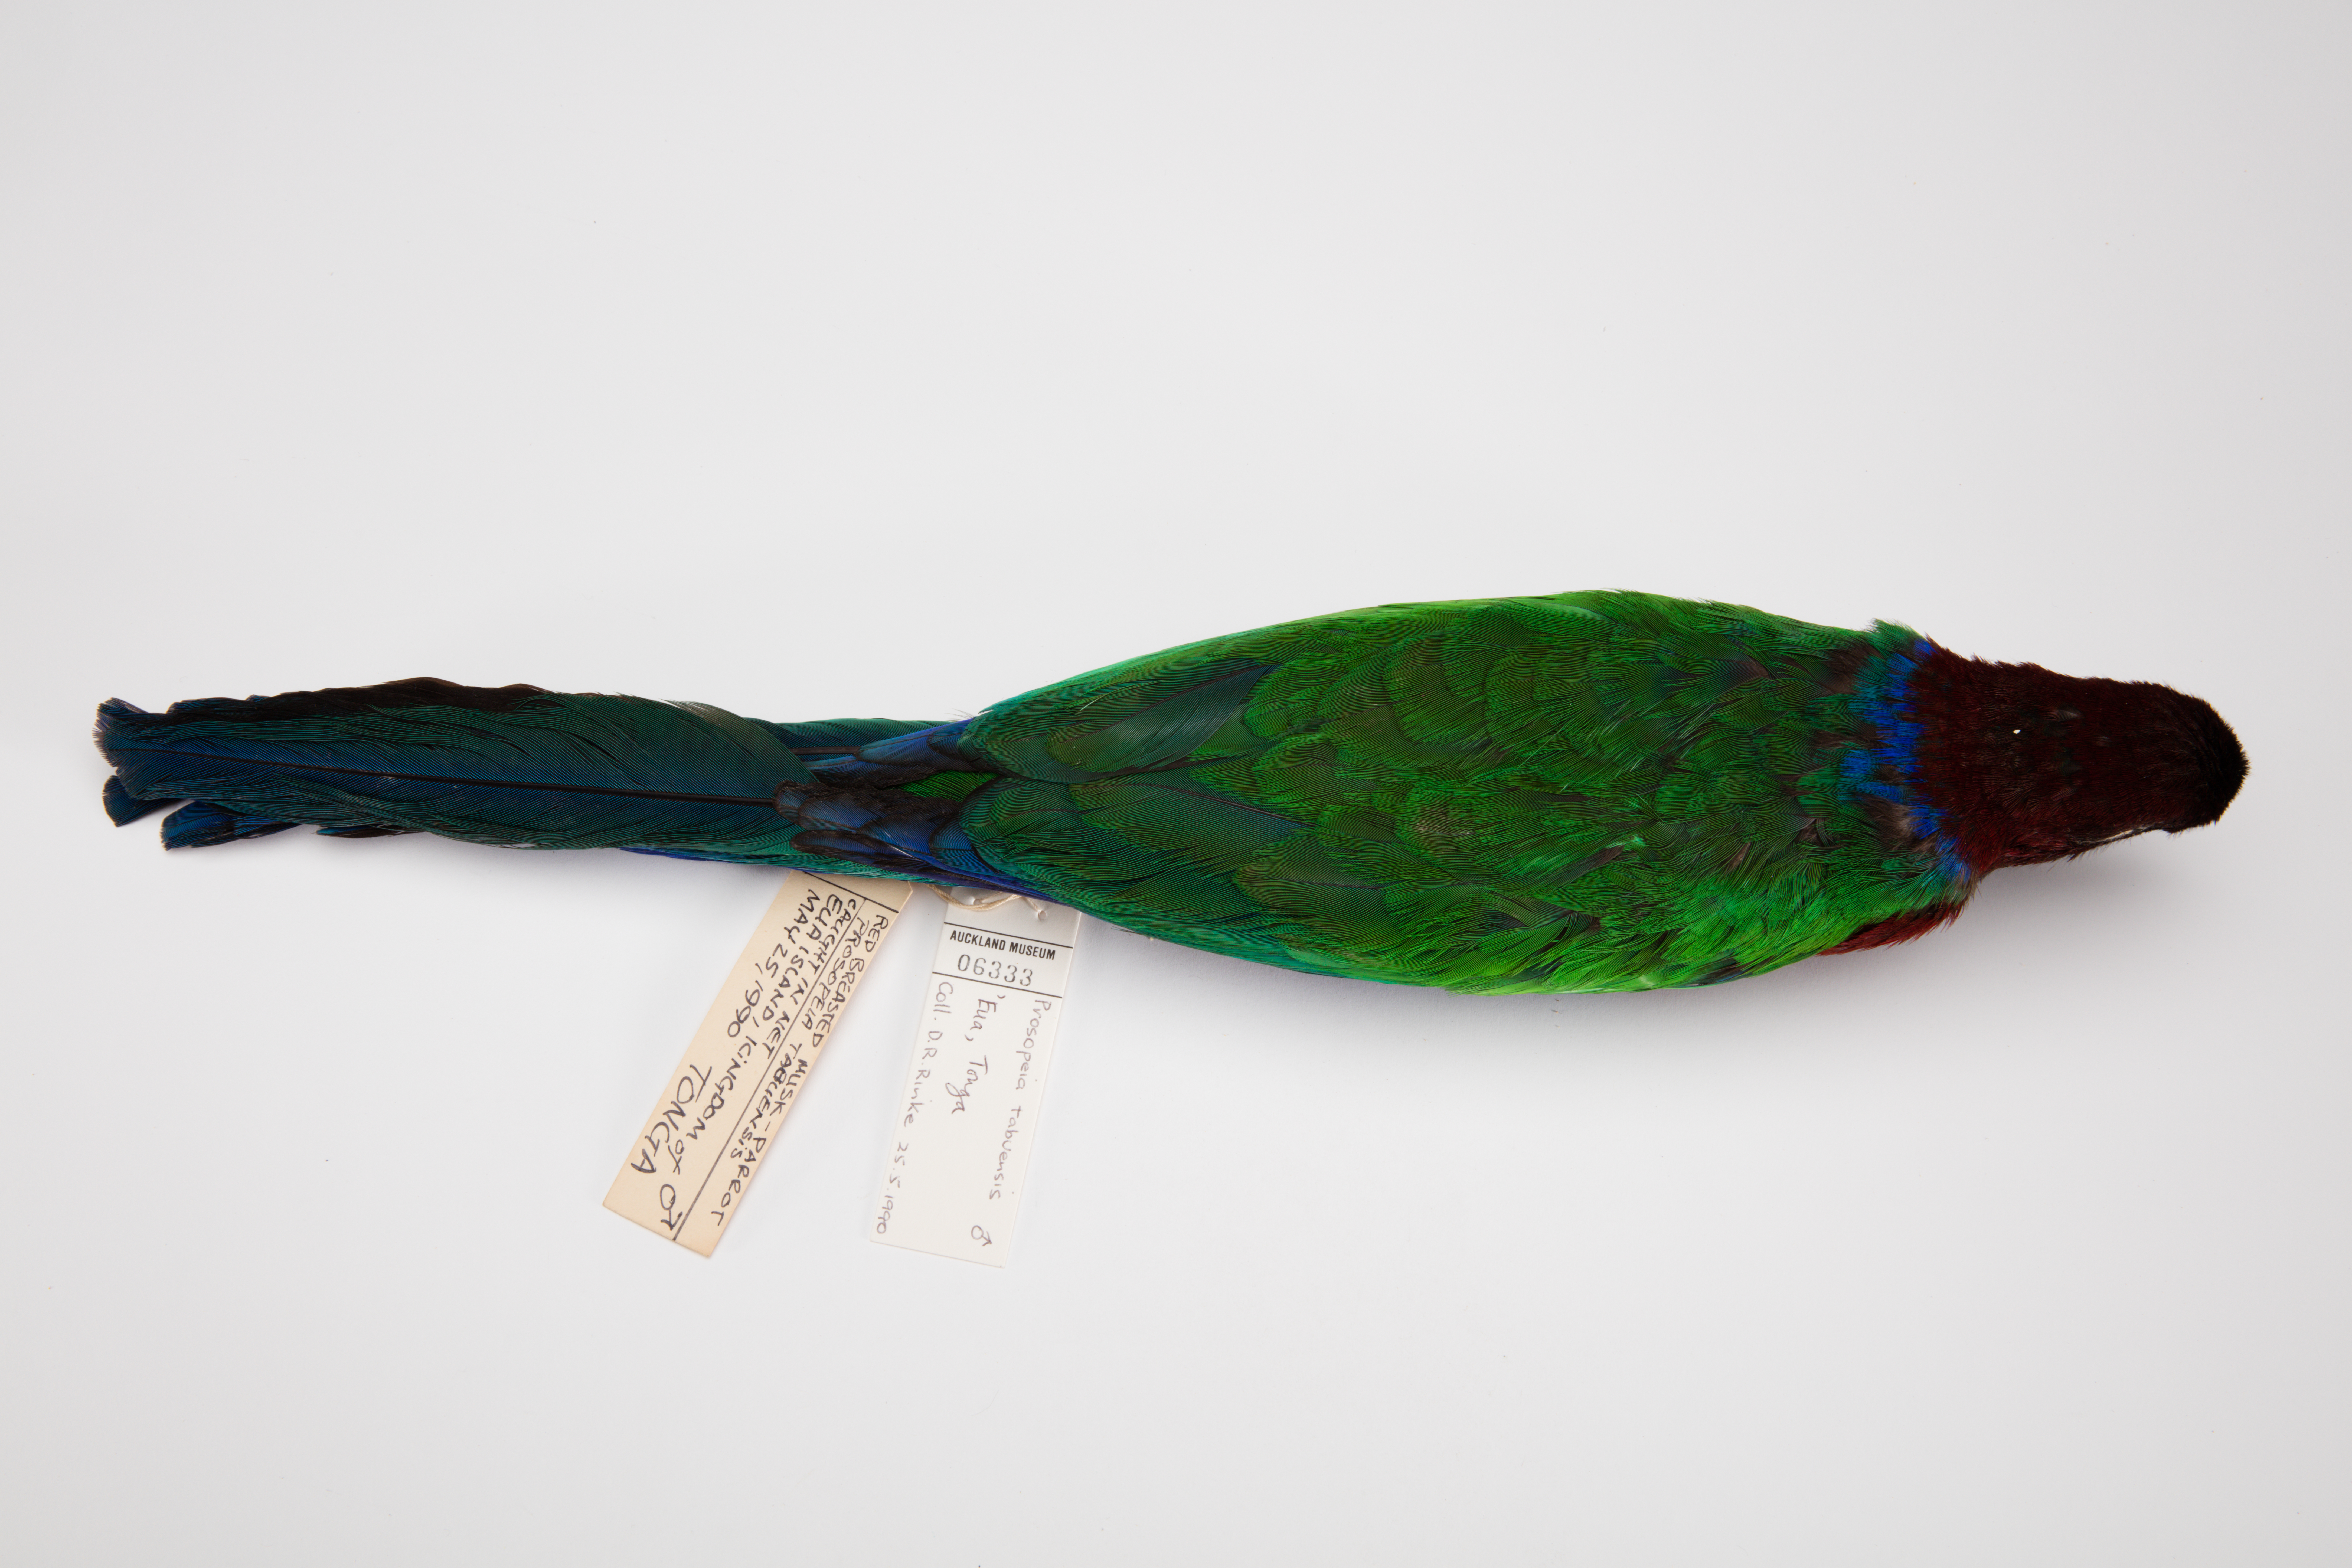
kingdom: Animalia
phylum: Chordata
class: Aves
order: Psittaciformes
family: Psittacidae
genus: Prosopeia
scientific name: Prosopeia tabuensis
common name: Maroon shining parrot
